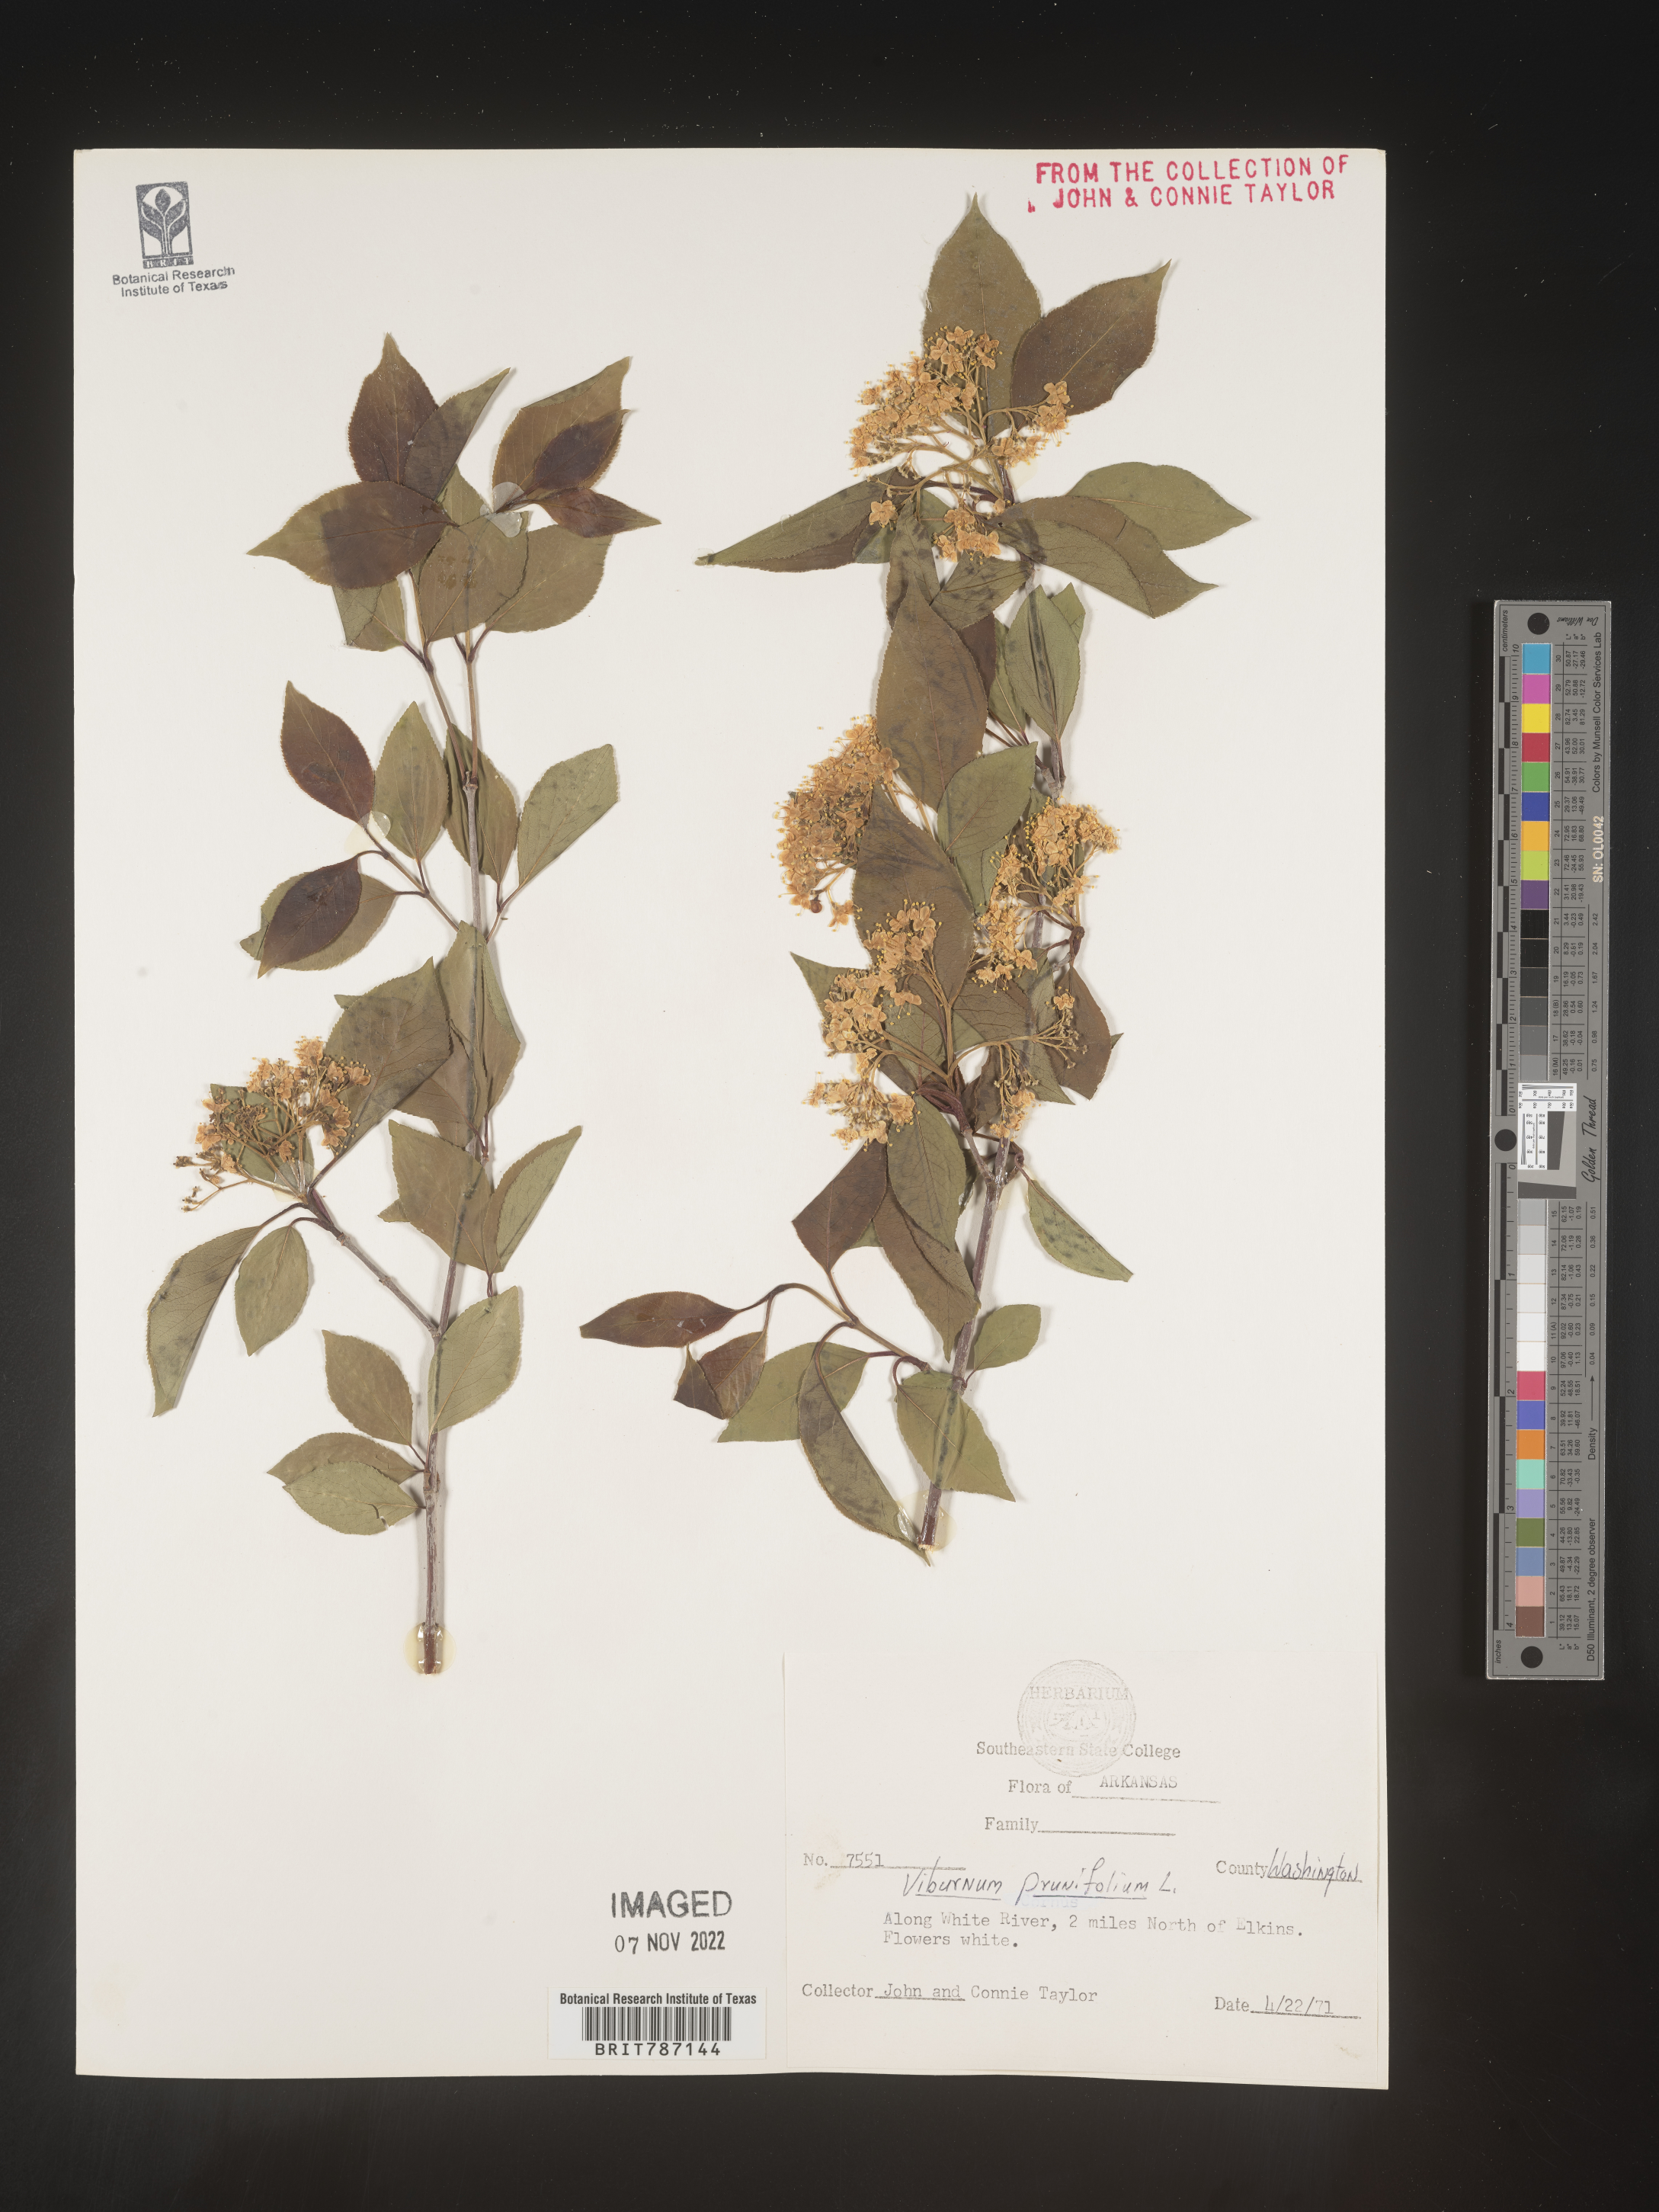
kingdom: Plantae
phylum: Tracheophyta
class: Magnoliopsida
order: Dipsacales
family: Viburnaceae
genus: Viburnum
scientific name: Viburnum prunifolium
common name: Black haw
